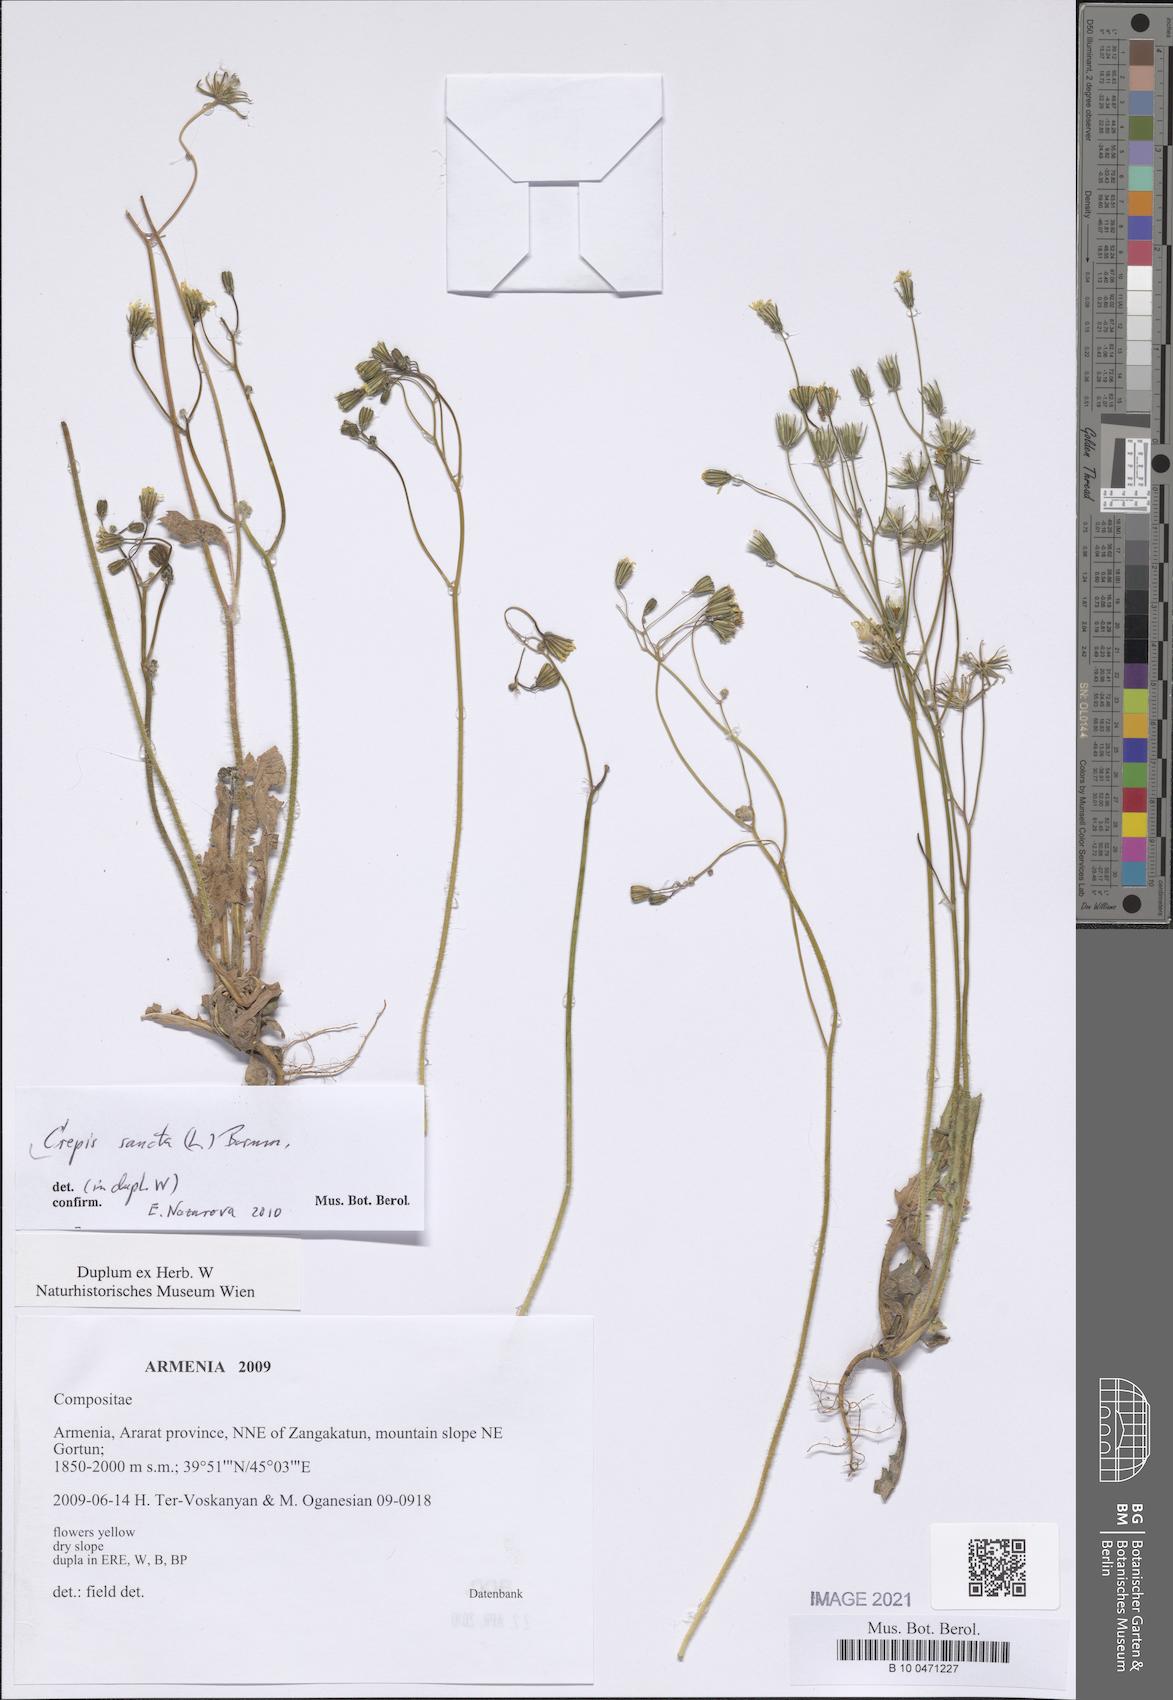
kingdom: Plantae
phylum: Tracheophyta
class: Magnoliopsida
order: Asterales
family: Asteraceae
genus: Crepis
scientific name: Crepis sancta
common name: Hawk's-beard
